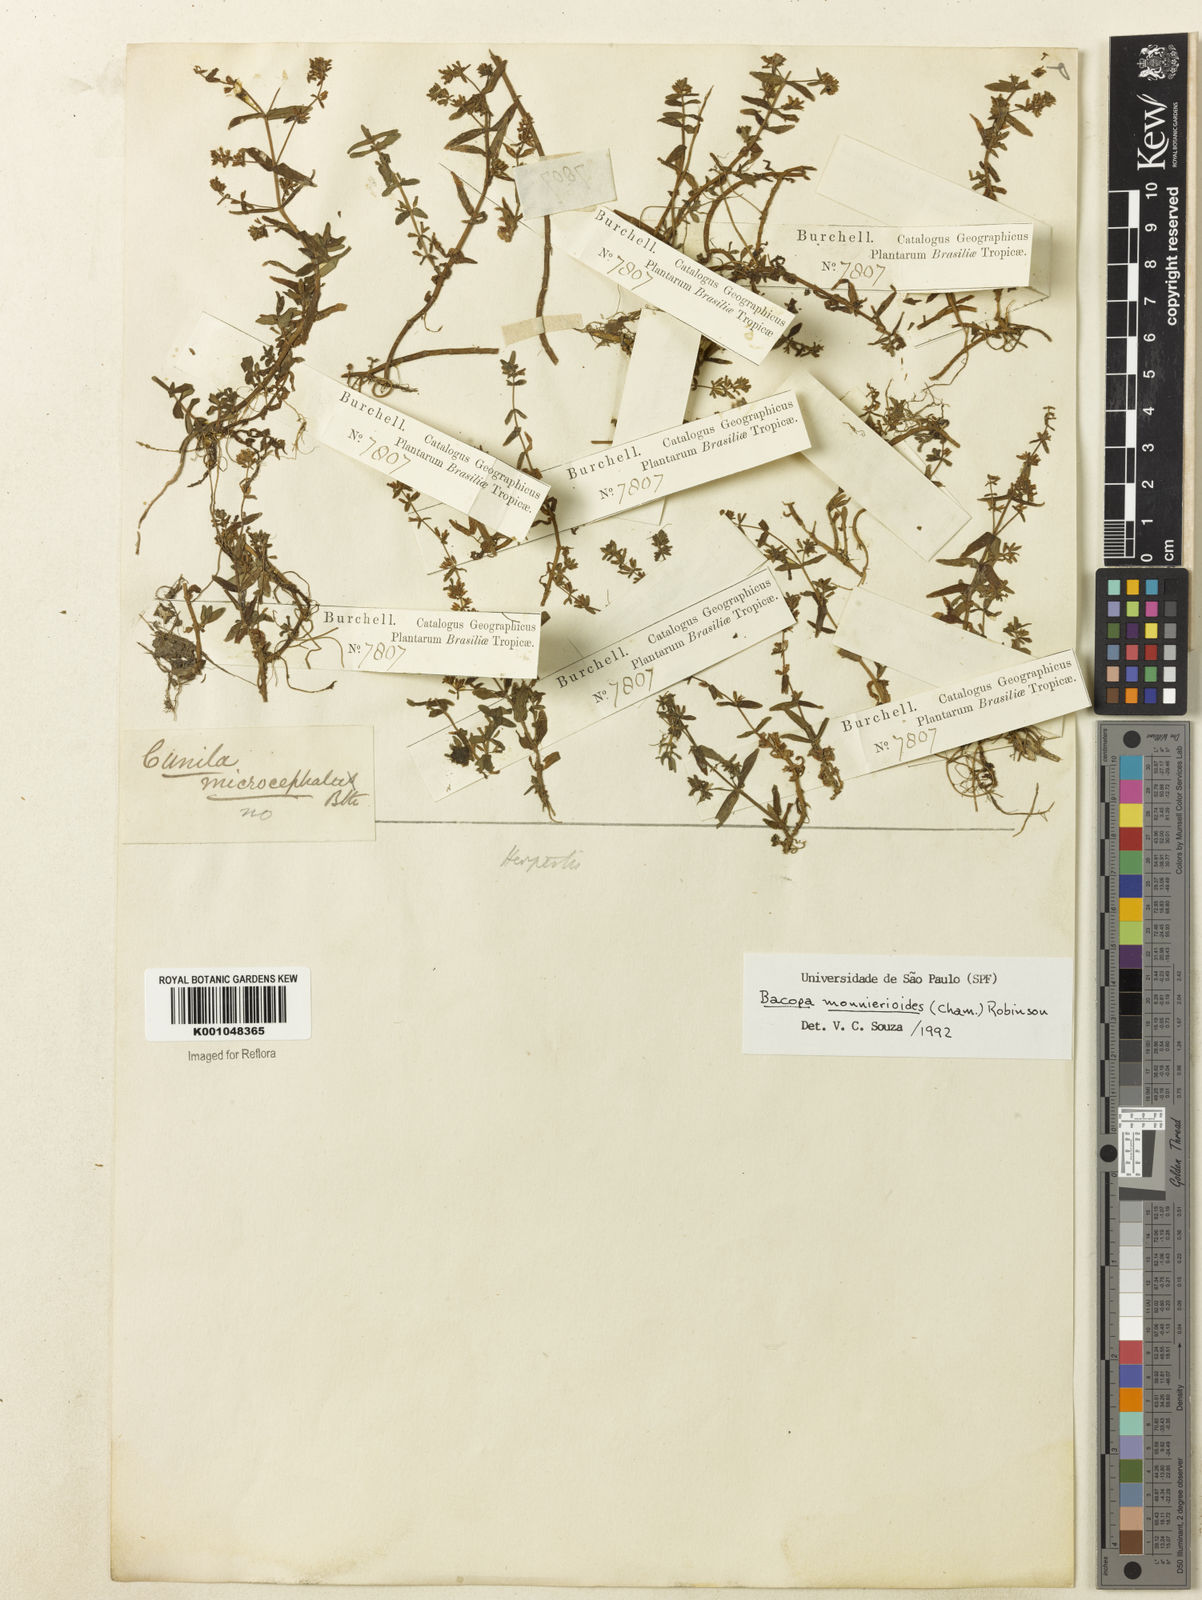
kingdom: Plantae
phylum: Tracheophyta
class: Magnoliopsida
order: Lamiales
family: Plantaginaceae
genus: Bacopa
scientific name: Bacopa monnierioides
